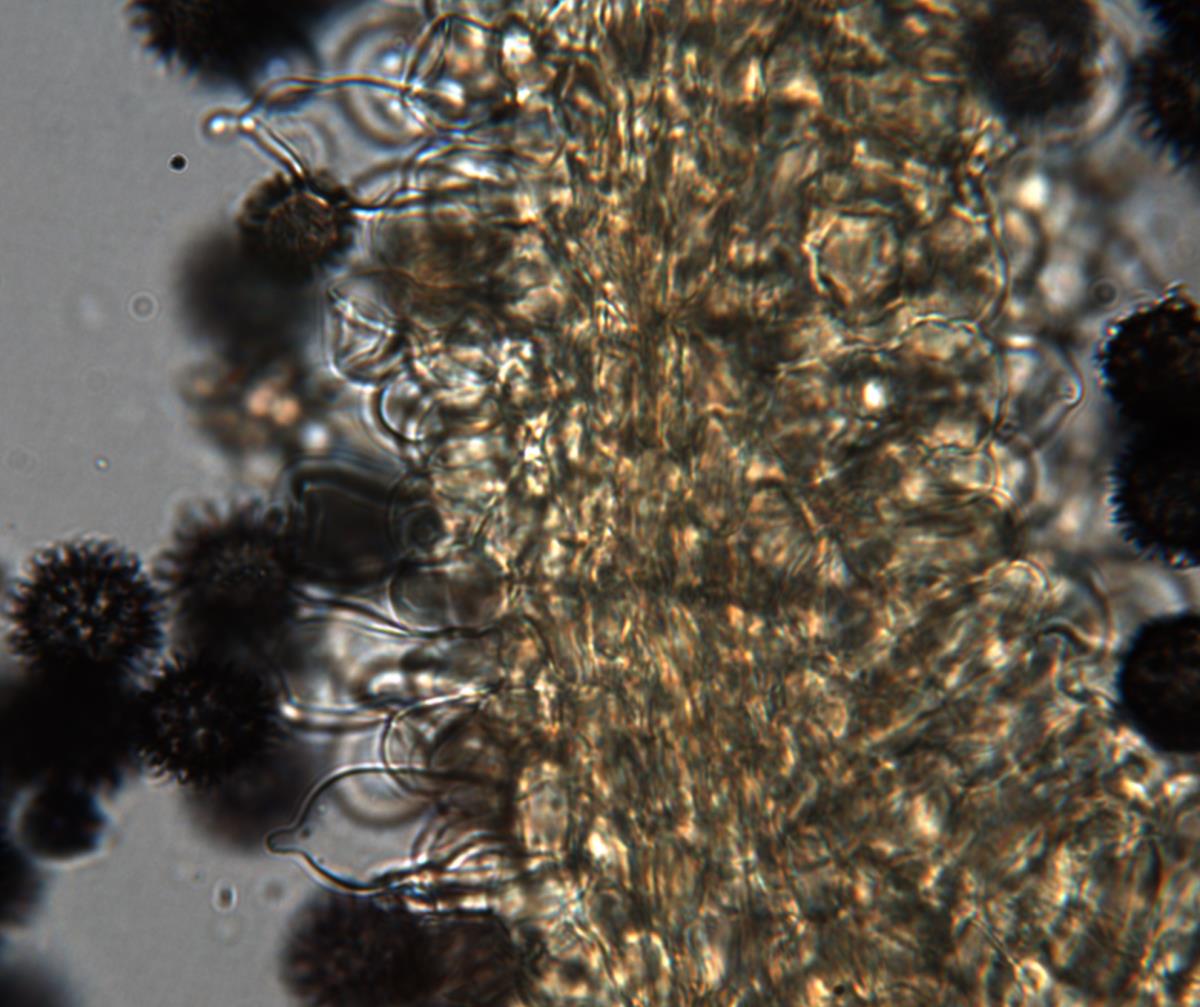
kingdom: Fungi
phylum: Basidiomycota
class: Agaricomycetes
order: Russulales
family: Russulaceae
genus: Russula
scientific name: Russula osphranticarpa
